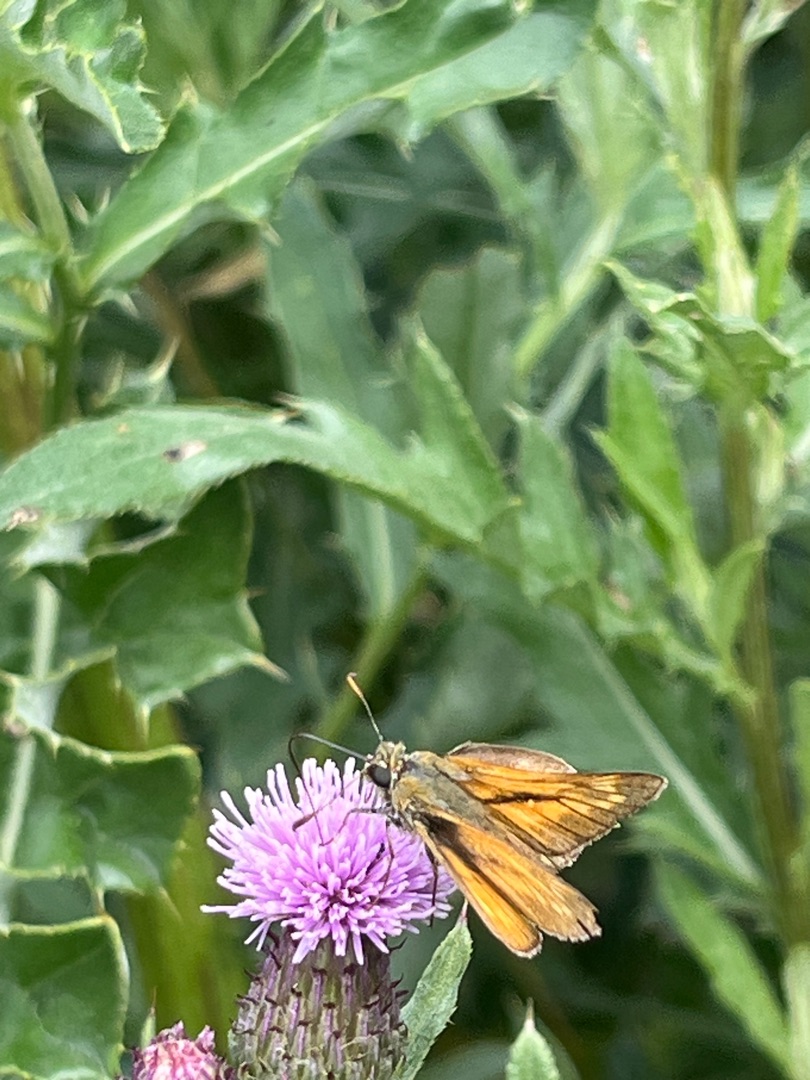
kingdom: Animalia
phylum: Arthropoda
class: Insecta
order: Lepidoptera
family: Hesperiidae
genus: Ochlodes
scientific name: Ochlodes venata
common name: Stor bredpande
